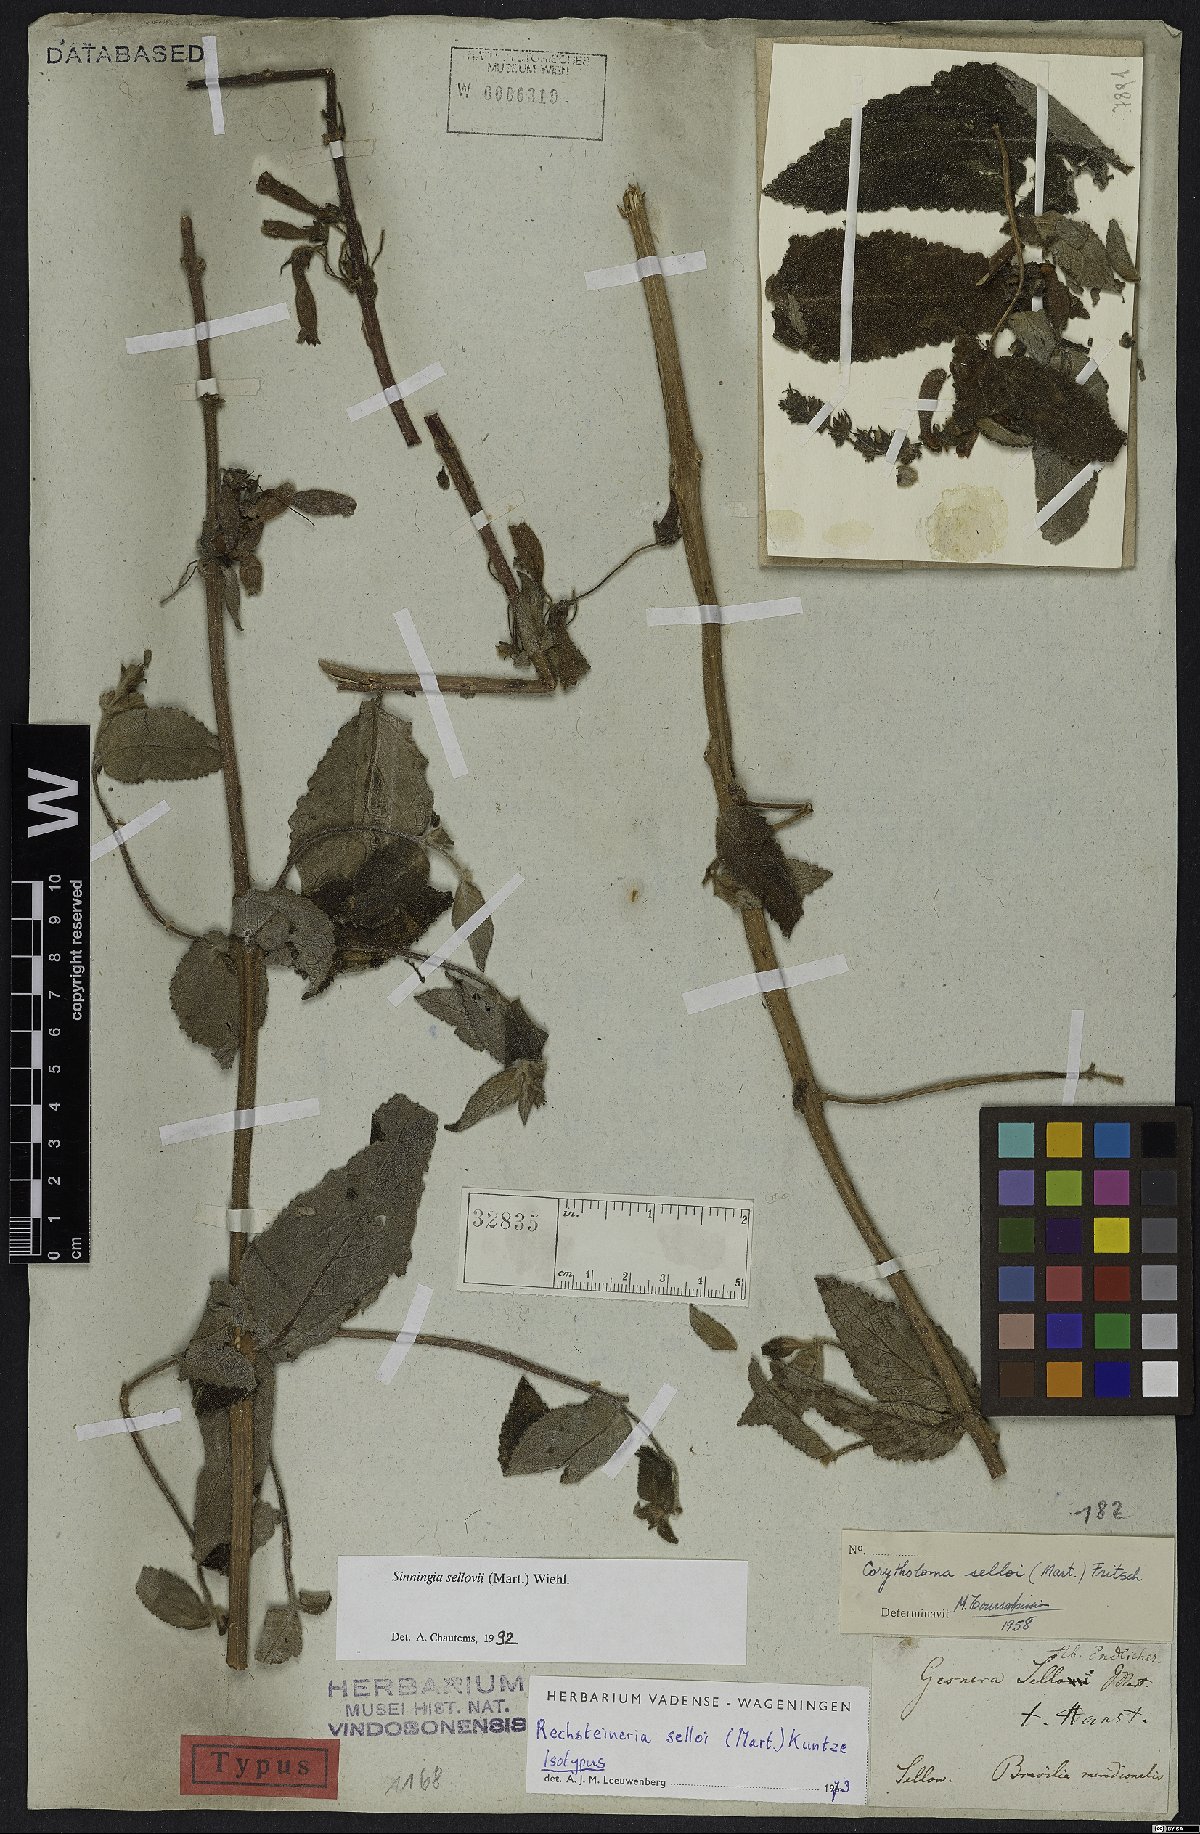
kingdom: Plantae
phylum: Tracheophyta
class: Magnoliopsida
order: Lamiales
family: Gesneriaceae
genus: Sinningia
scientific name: Sinningia sellovii
